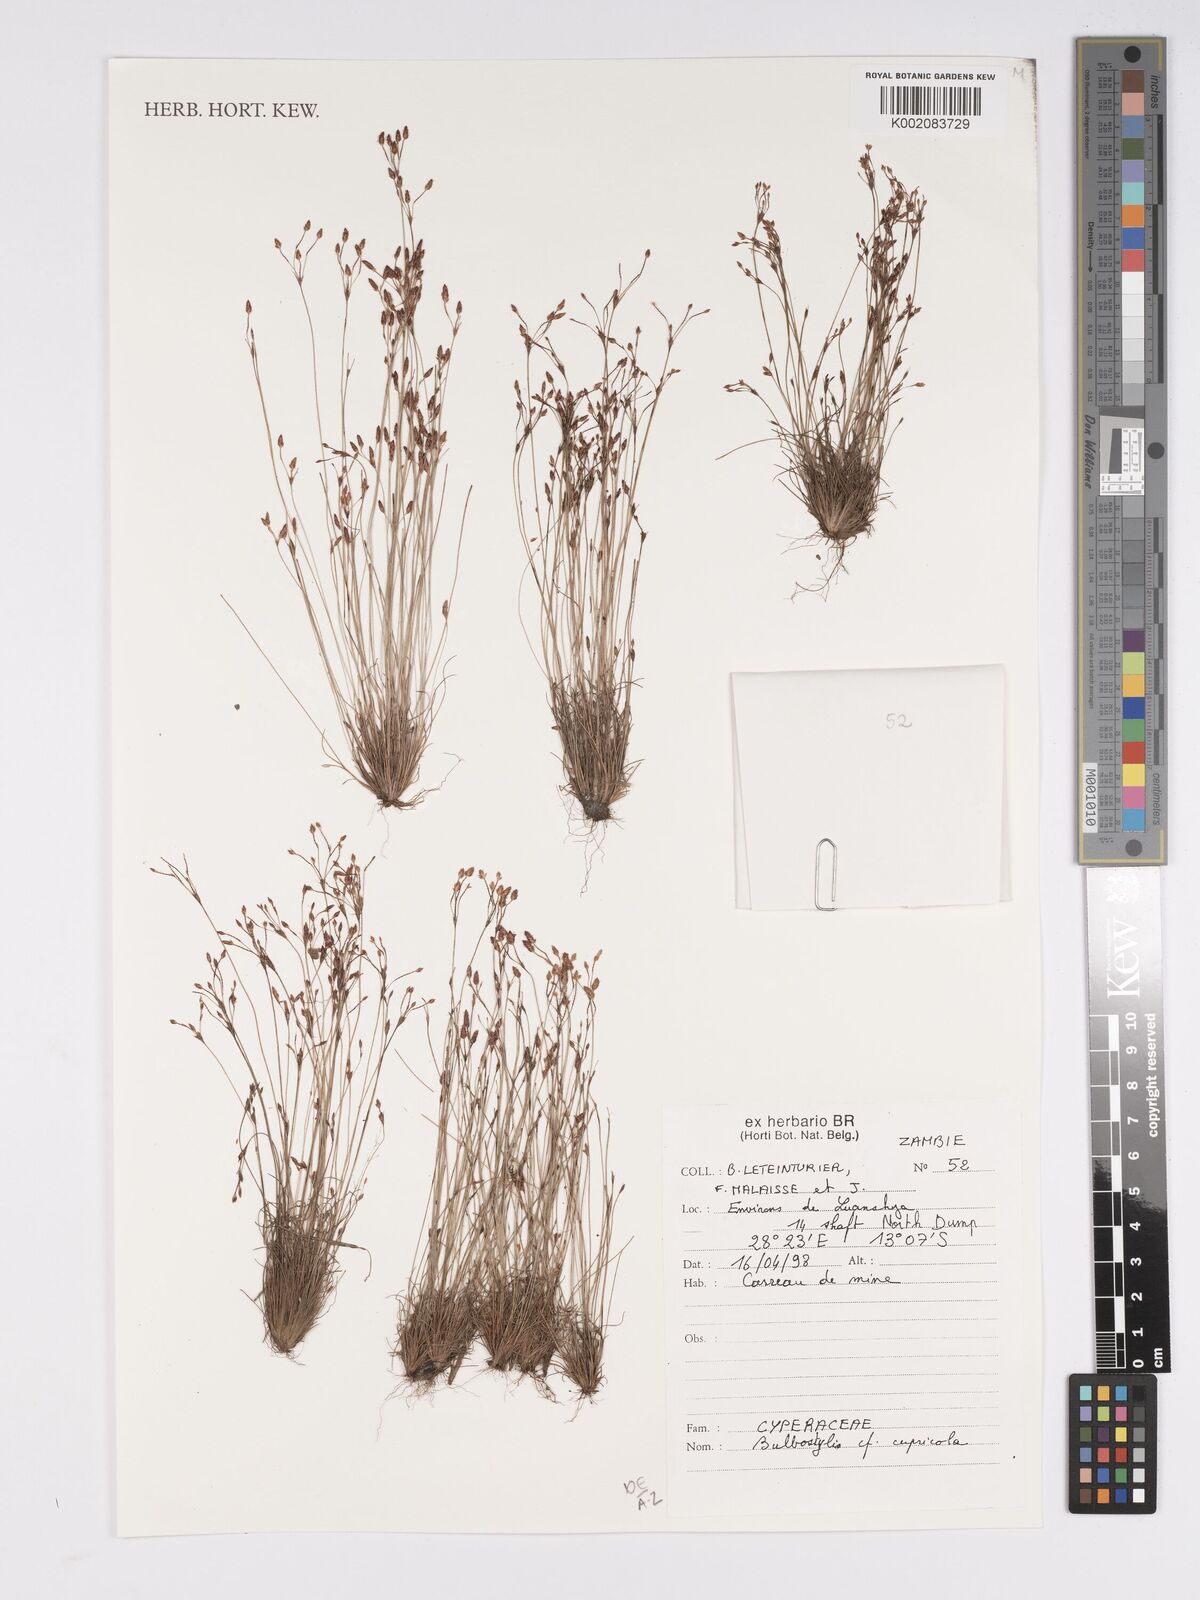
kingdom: Plantae
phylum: Tracheophyta
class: Liliopsida
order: Poales
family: Cyperaceae
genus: Bulbostylis
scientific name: Bulbostylis cupricola
